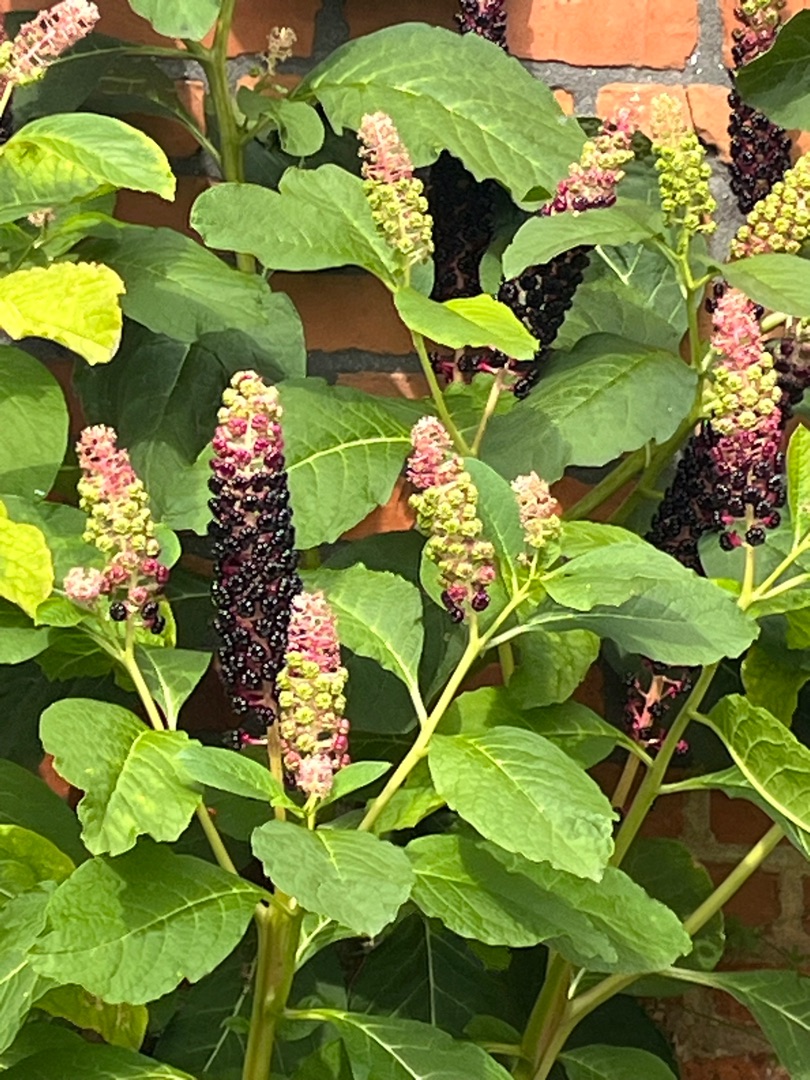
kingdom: Plantae
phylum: Tracheophyta
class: Magnoliopsida
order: Caryophyllales
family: Phytolaccaceae
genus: Phytolacca
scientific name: Phytolacca acinosa
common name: Asiatisk kermesbær
